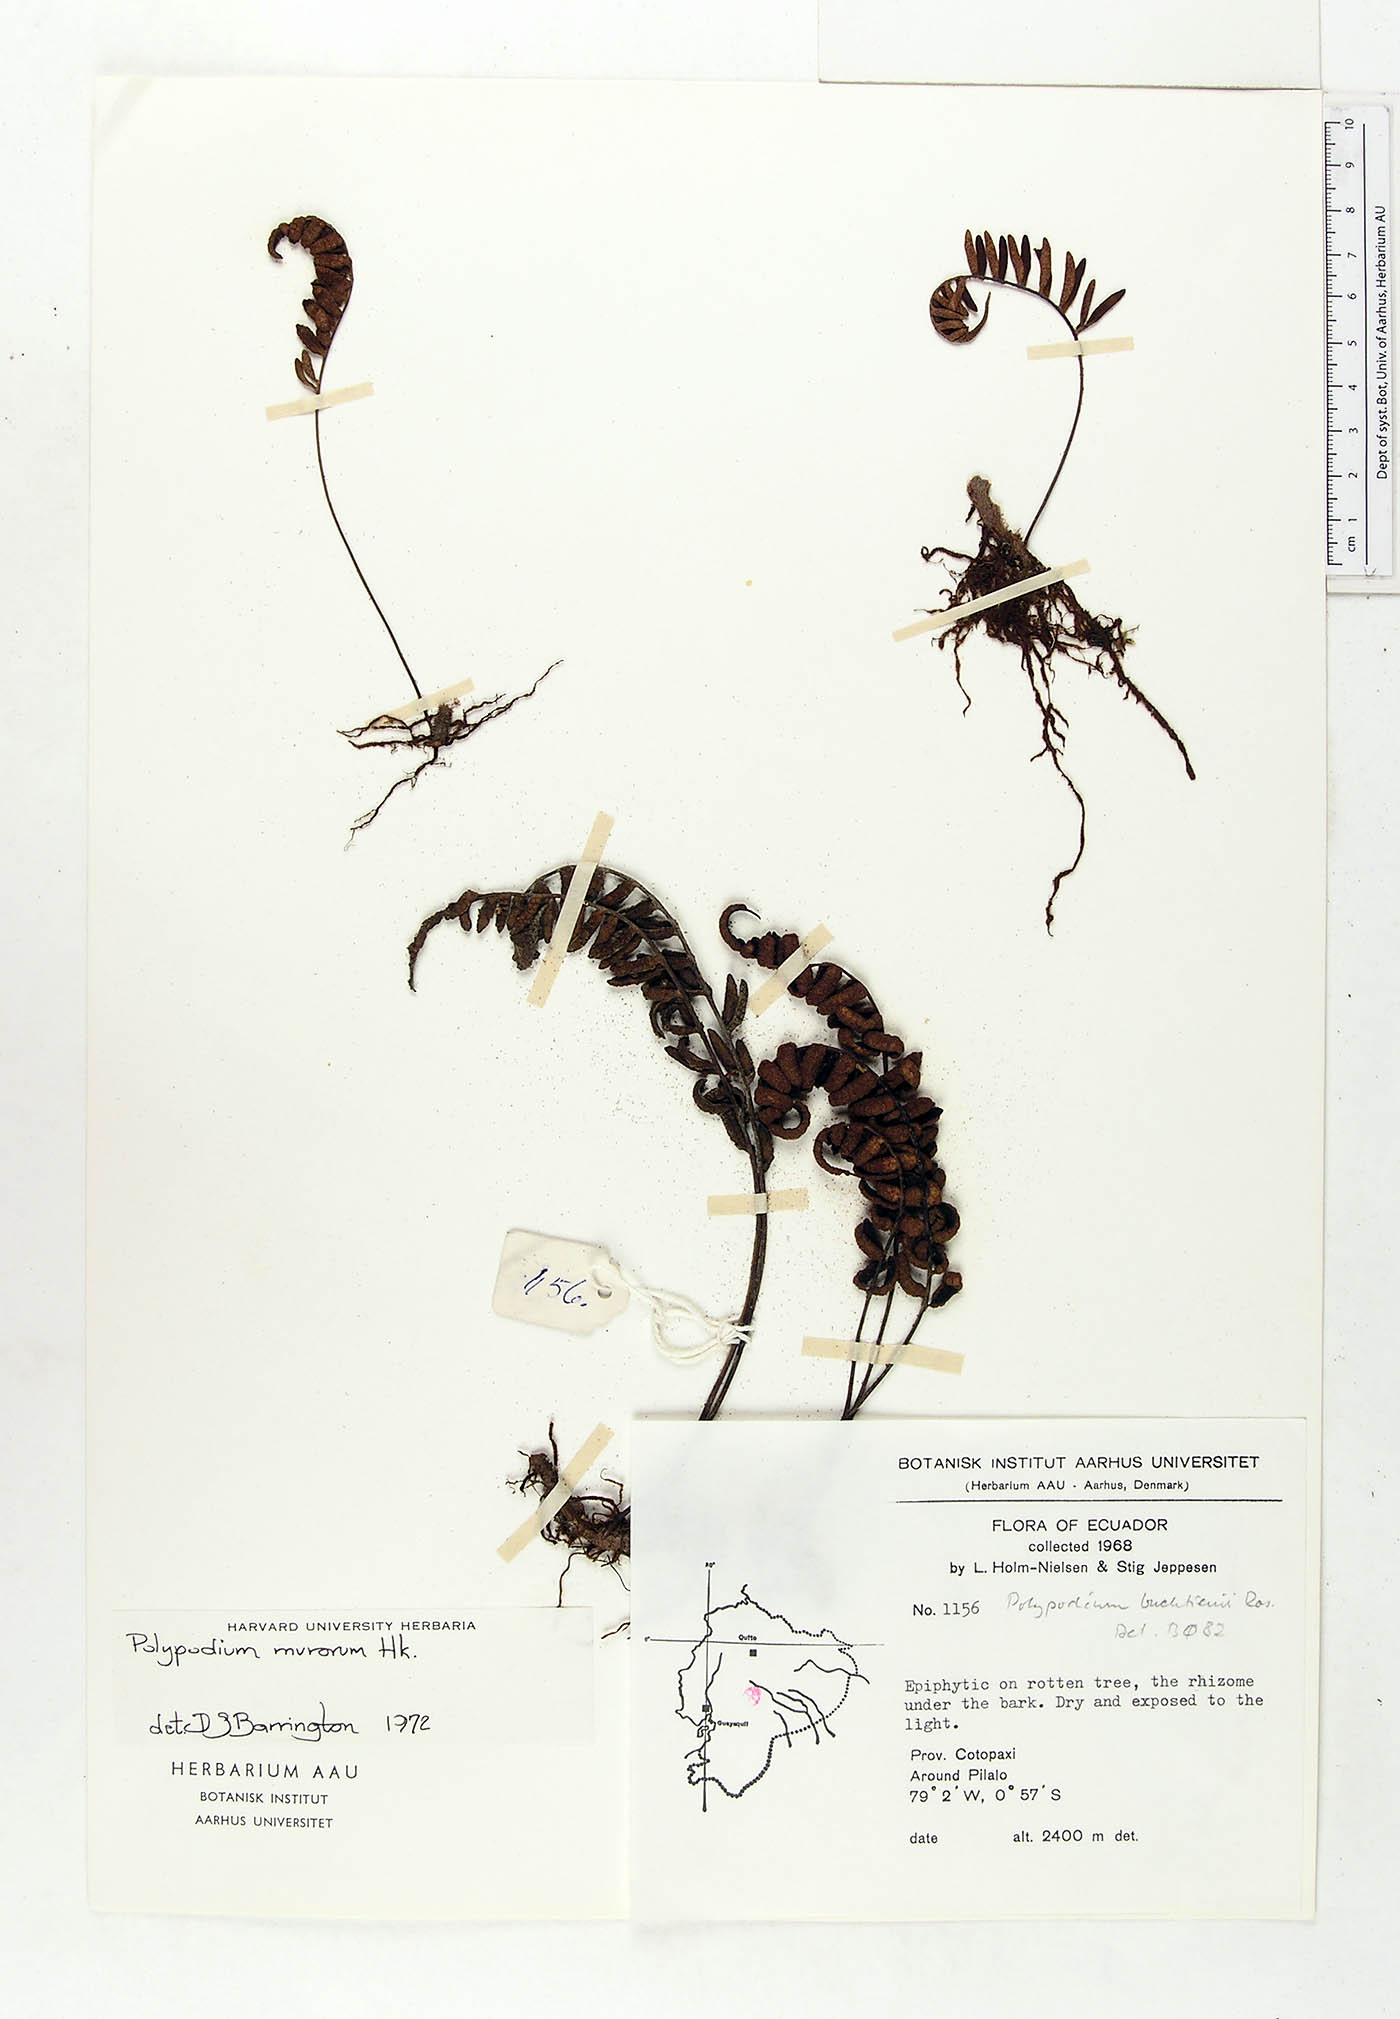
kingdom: Plantae
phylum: Tracheophyta
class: Polypodiopsida
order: Polypodiales
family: Polypodiaceae
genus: Pleopeltis
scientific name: Pleopeltis buchtienii
